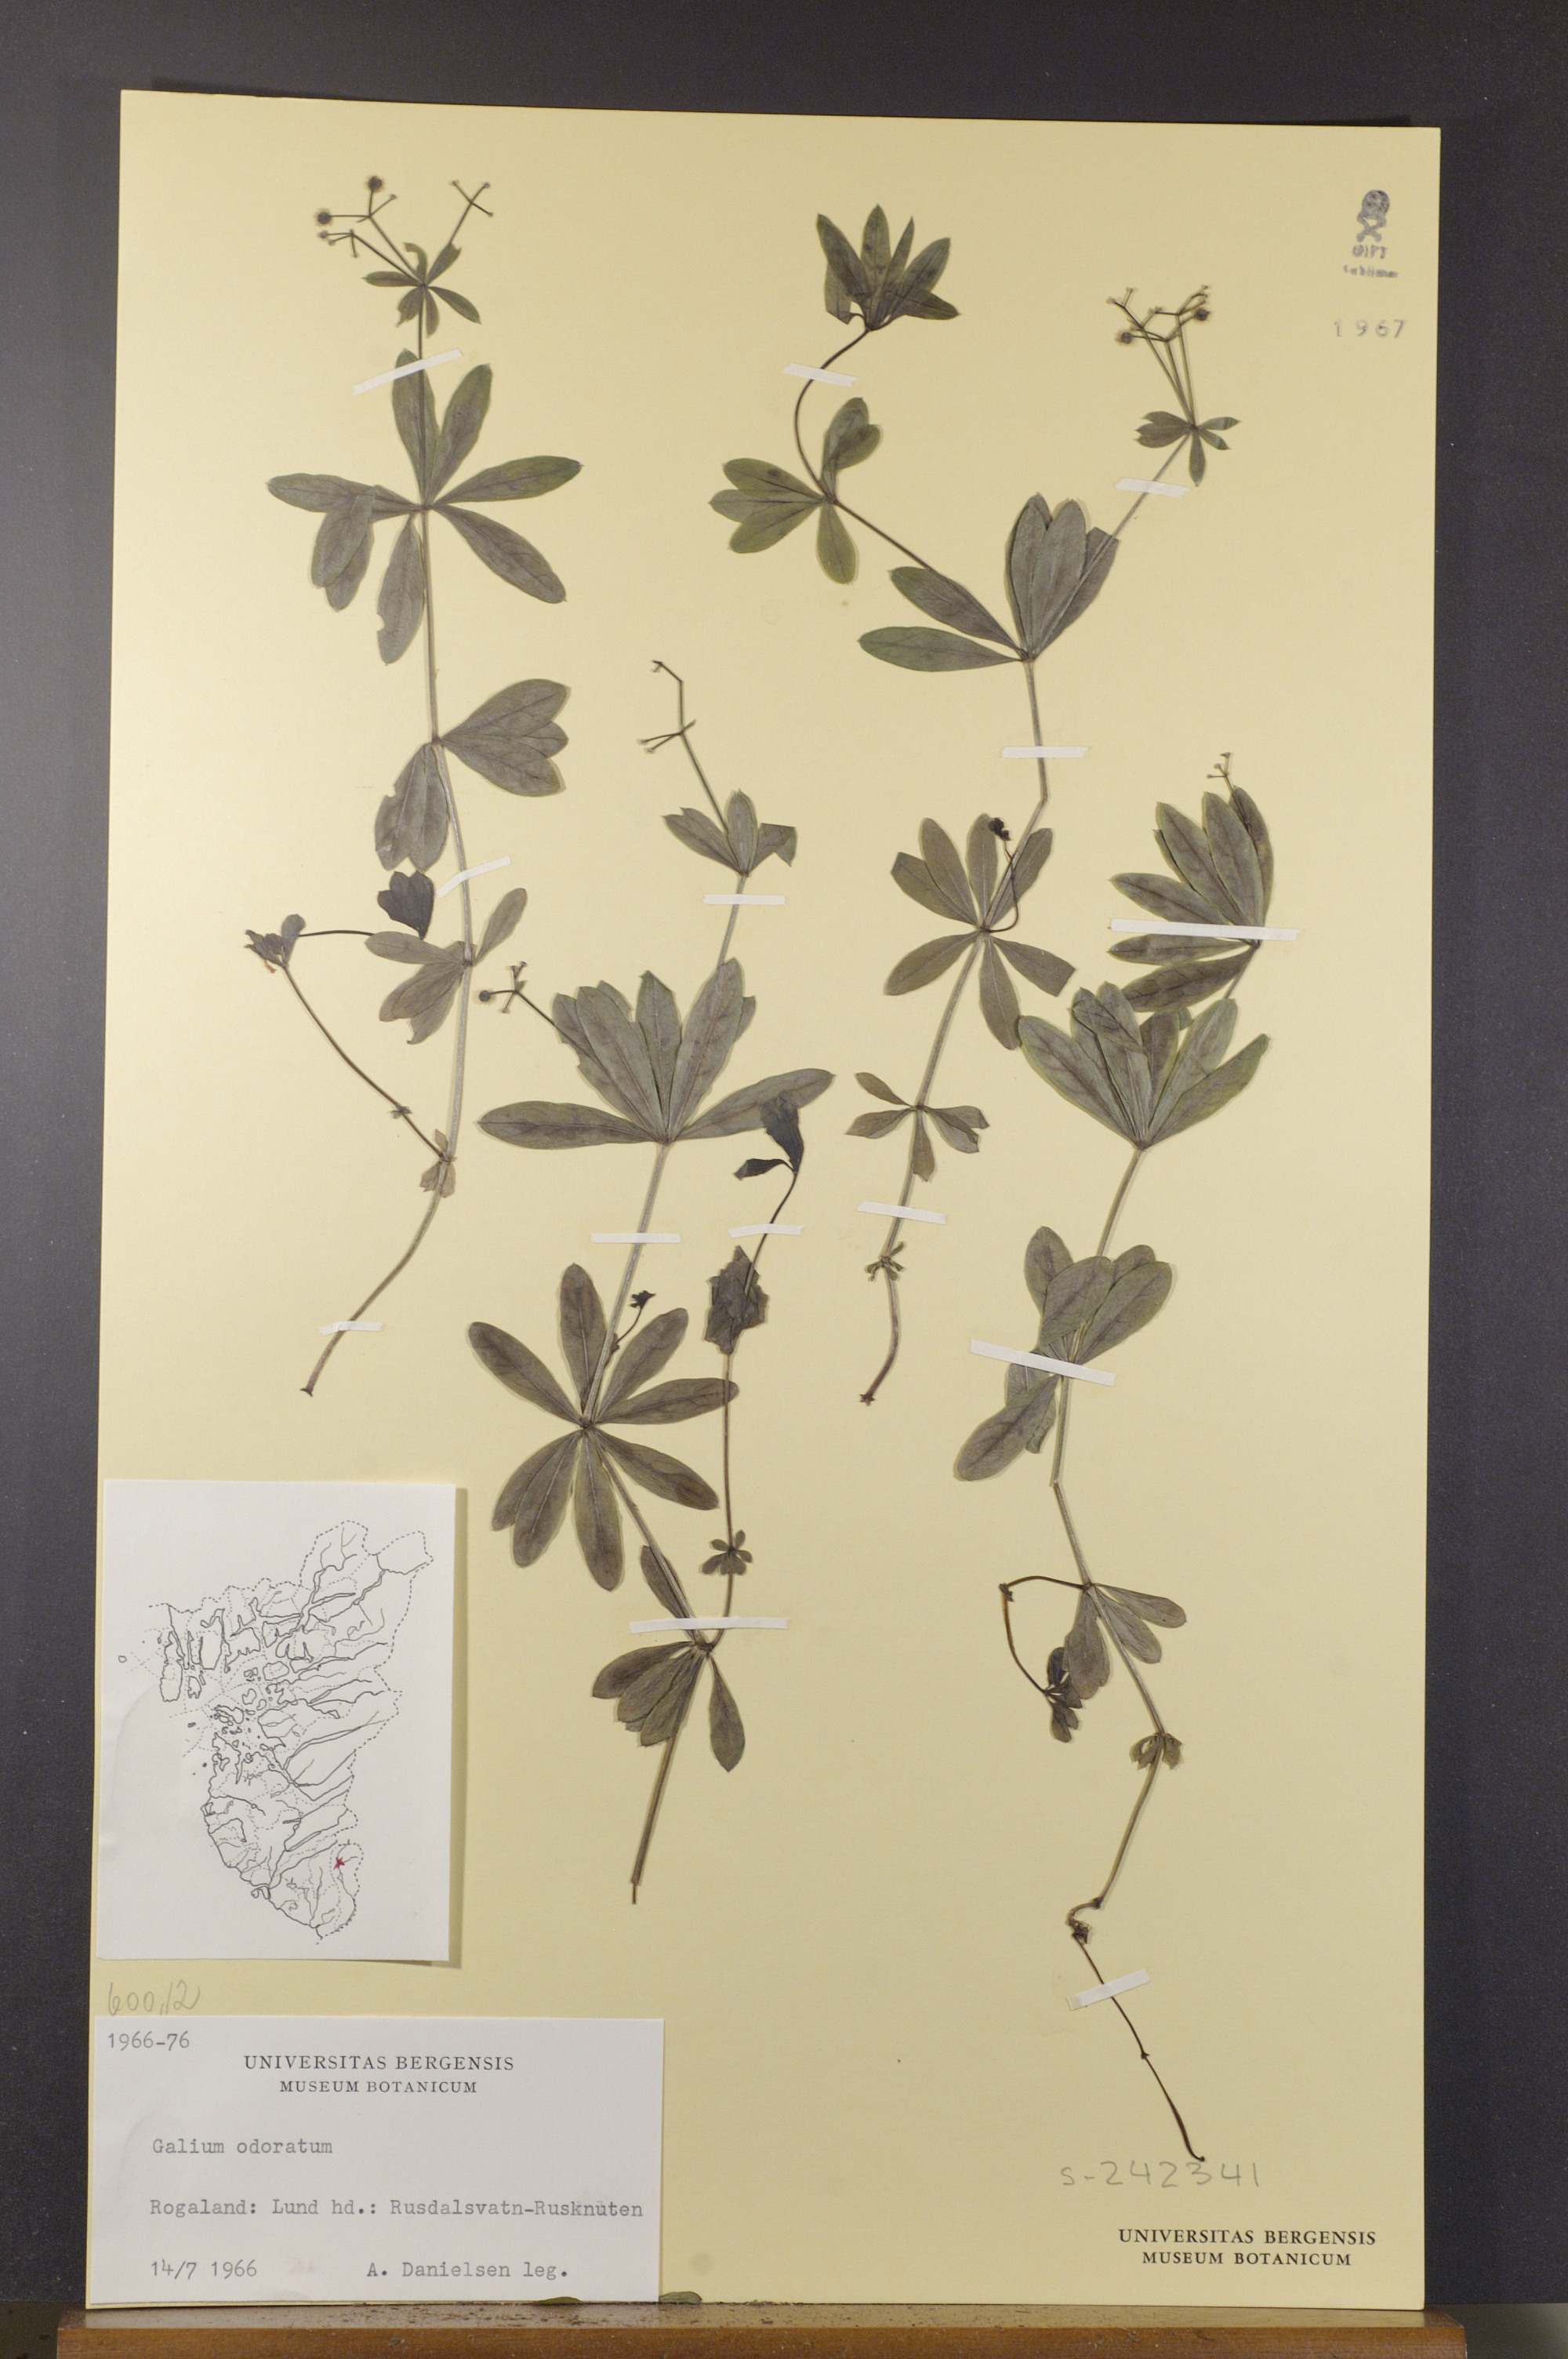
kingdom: Plantae
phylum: Tracheophyta
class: Magnoliopsida
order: Gentianales
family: Rubiaceae
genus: Galium
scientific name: Galium odoratum
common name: Sweet woodruff
